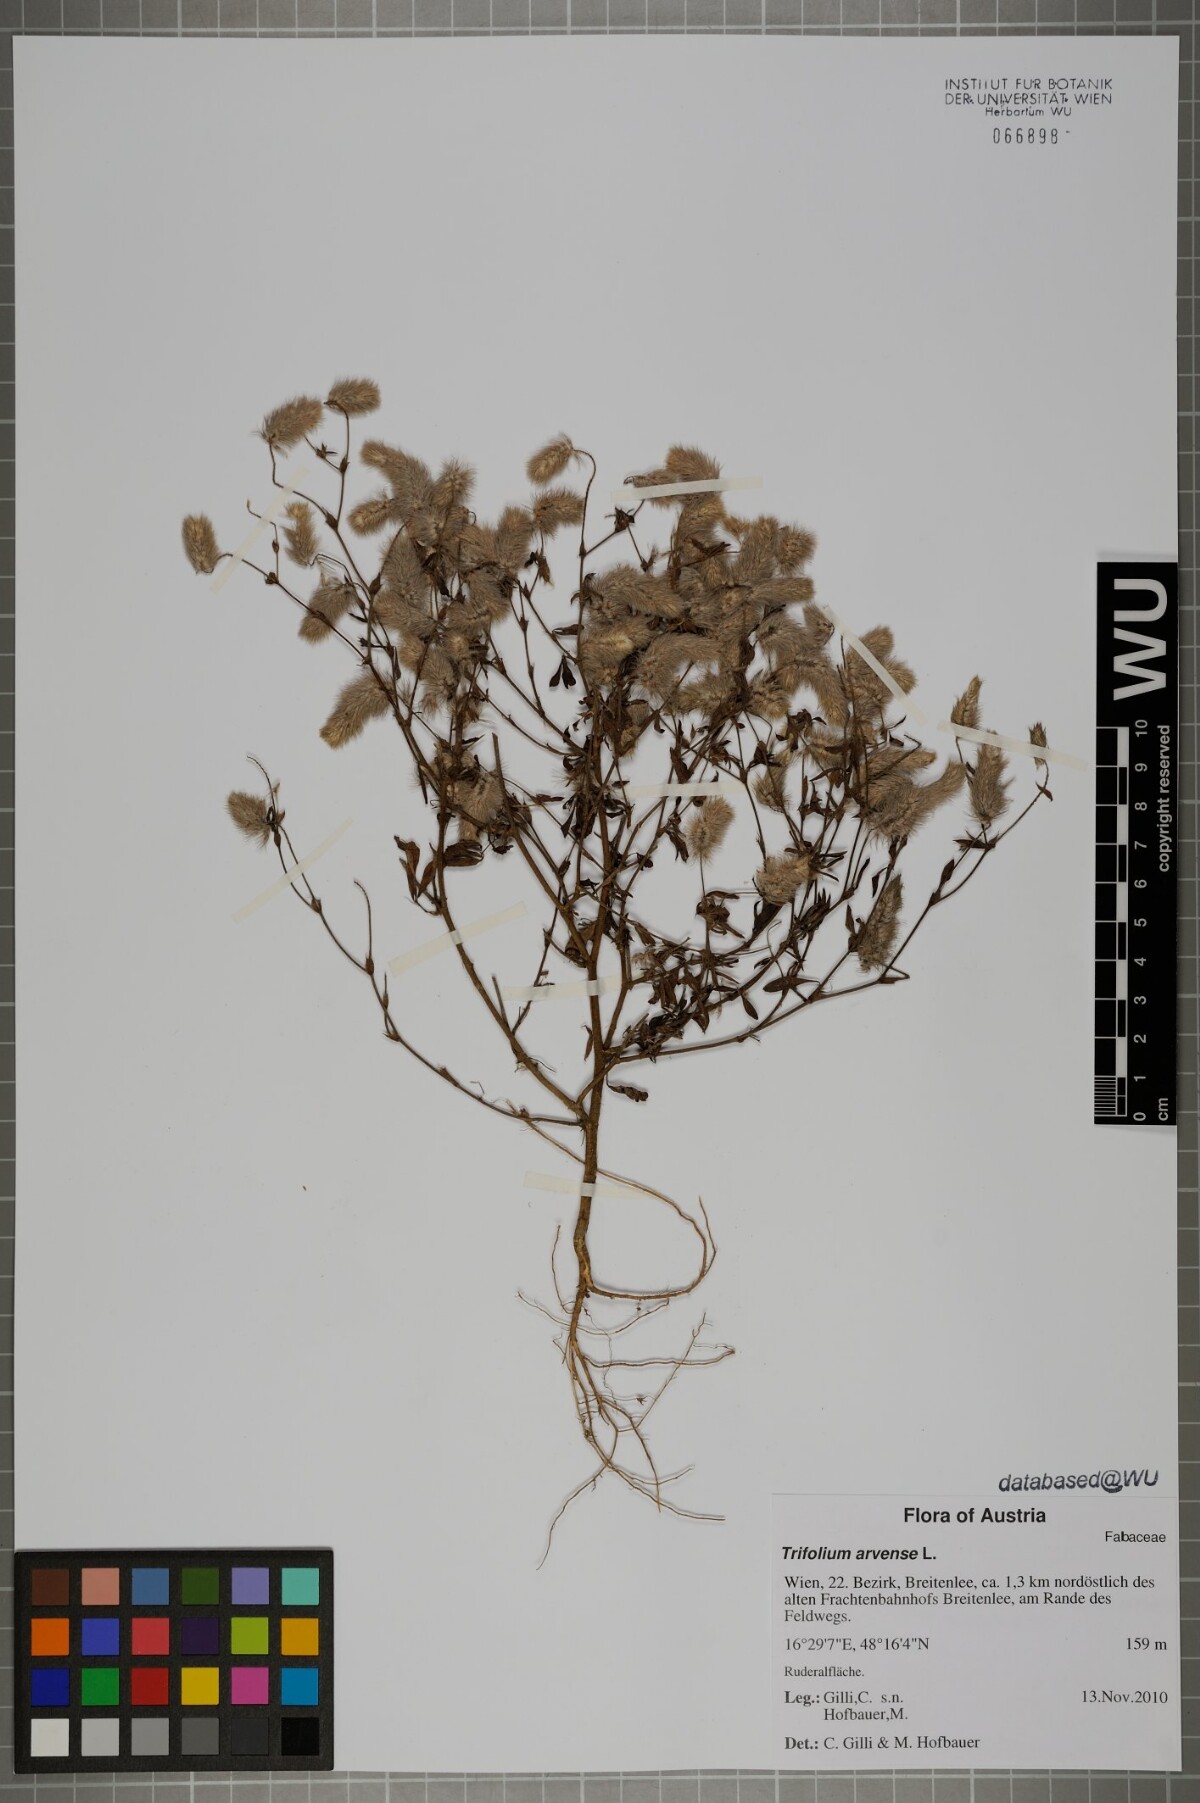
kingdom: Plantae
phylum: Tracheophyta
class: Magnoliopsida
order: Fabales
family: Fabaceae
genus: Trifolium
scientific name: Trifolium arvense
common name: Hare's-foot clover
